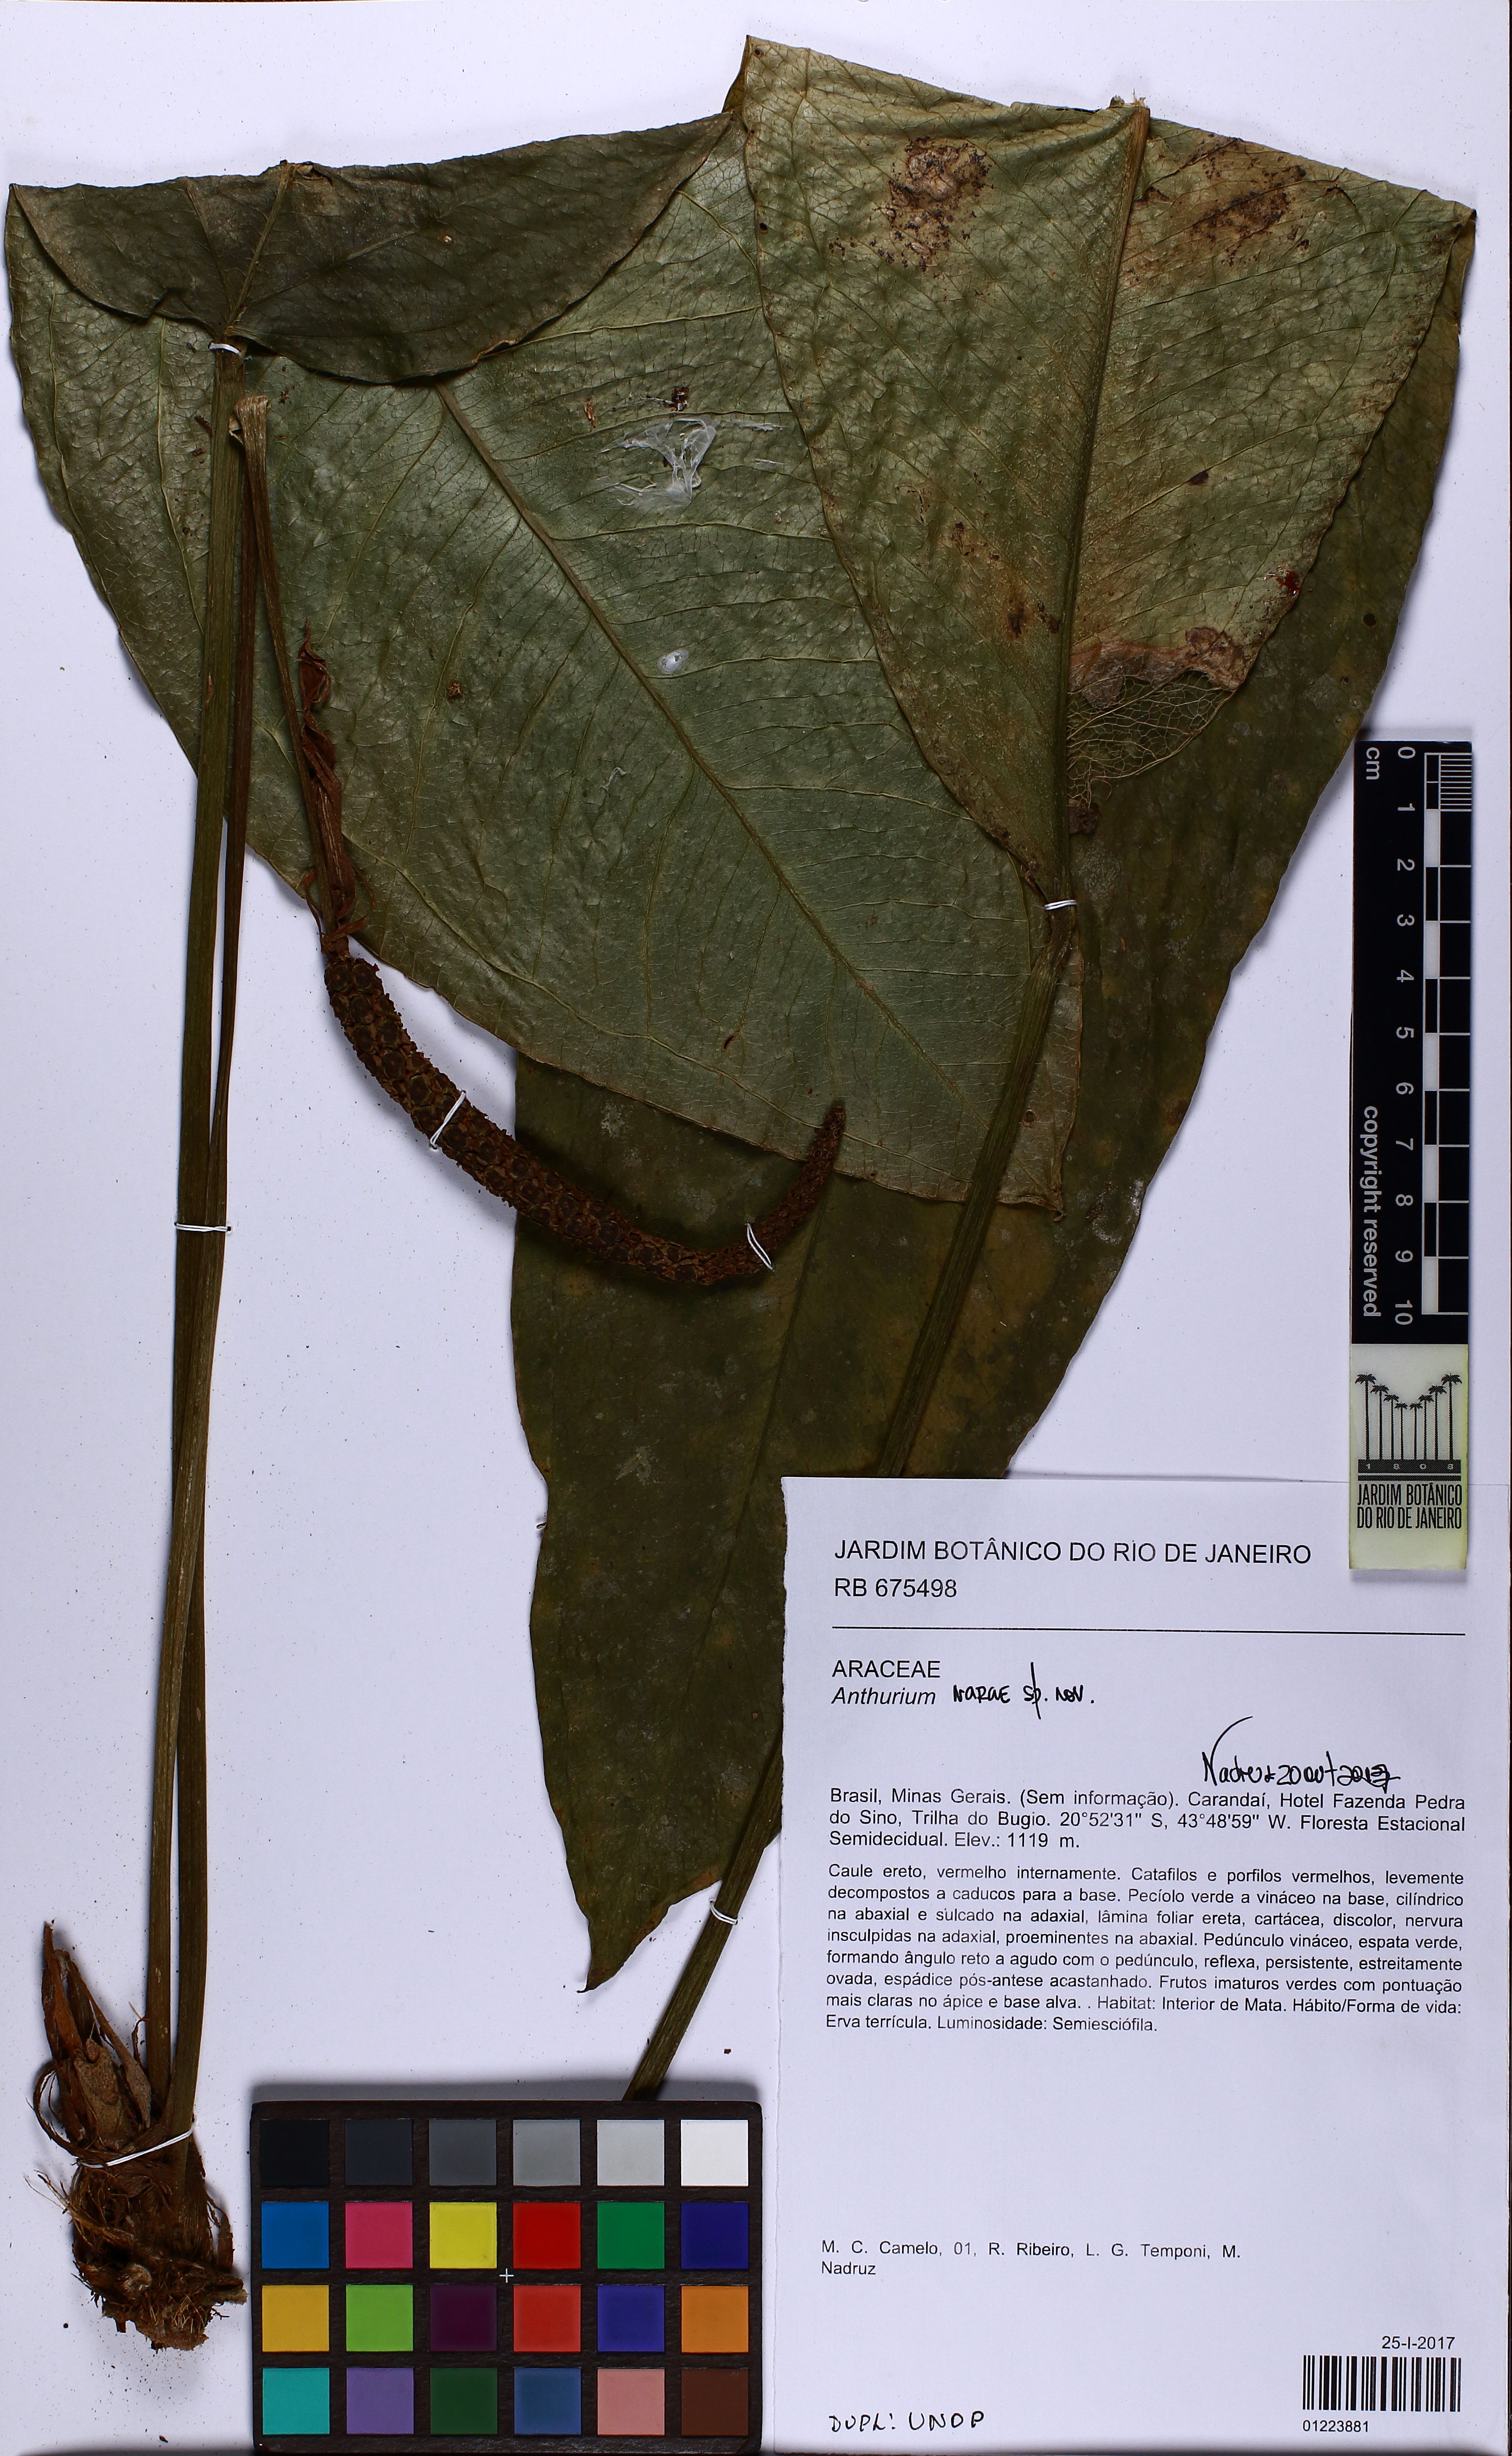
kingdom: Plantae
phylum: Tracheophyta
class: Liliopsida
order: Alismatales
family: Araceae
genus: Anthurium
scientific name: Anthurium narae
